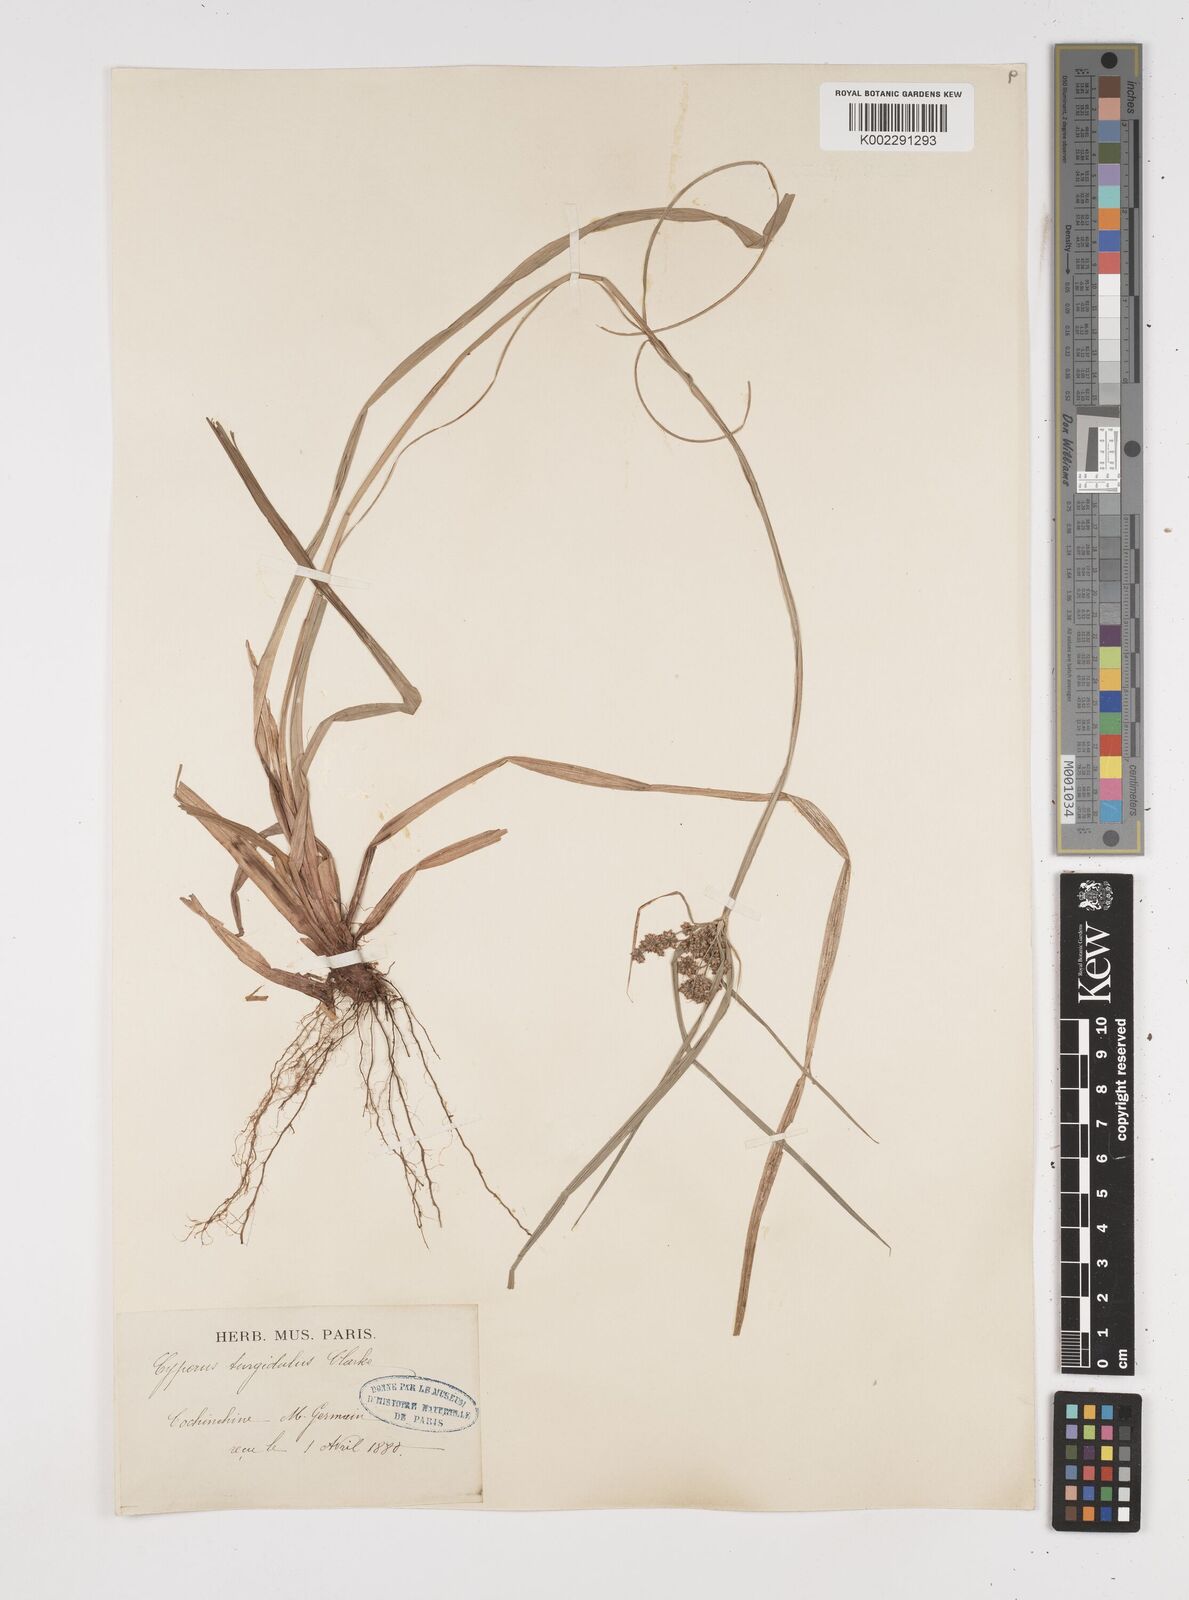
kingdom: Plantae
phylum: Tracheophyta
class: Liliopsida
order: Poales
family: Cyperaceae
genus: Cyperus
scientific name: Cyperus trialatus
